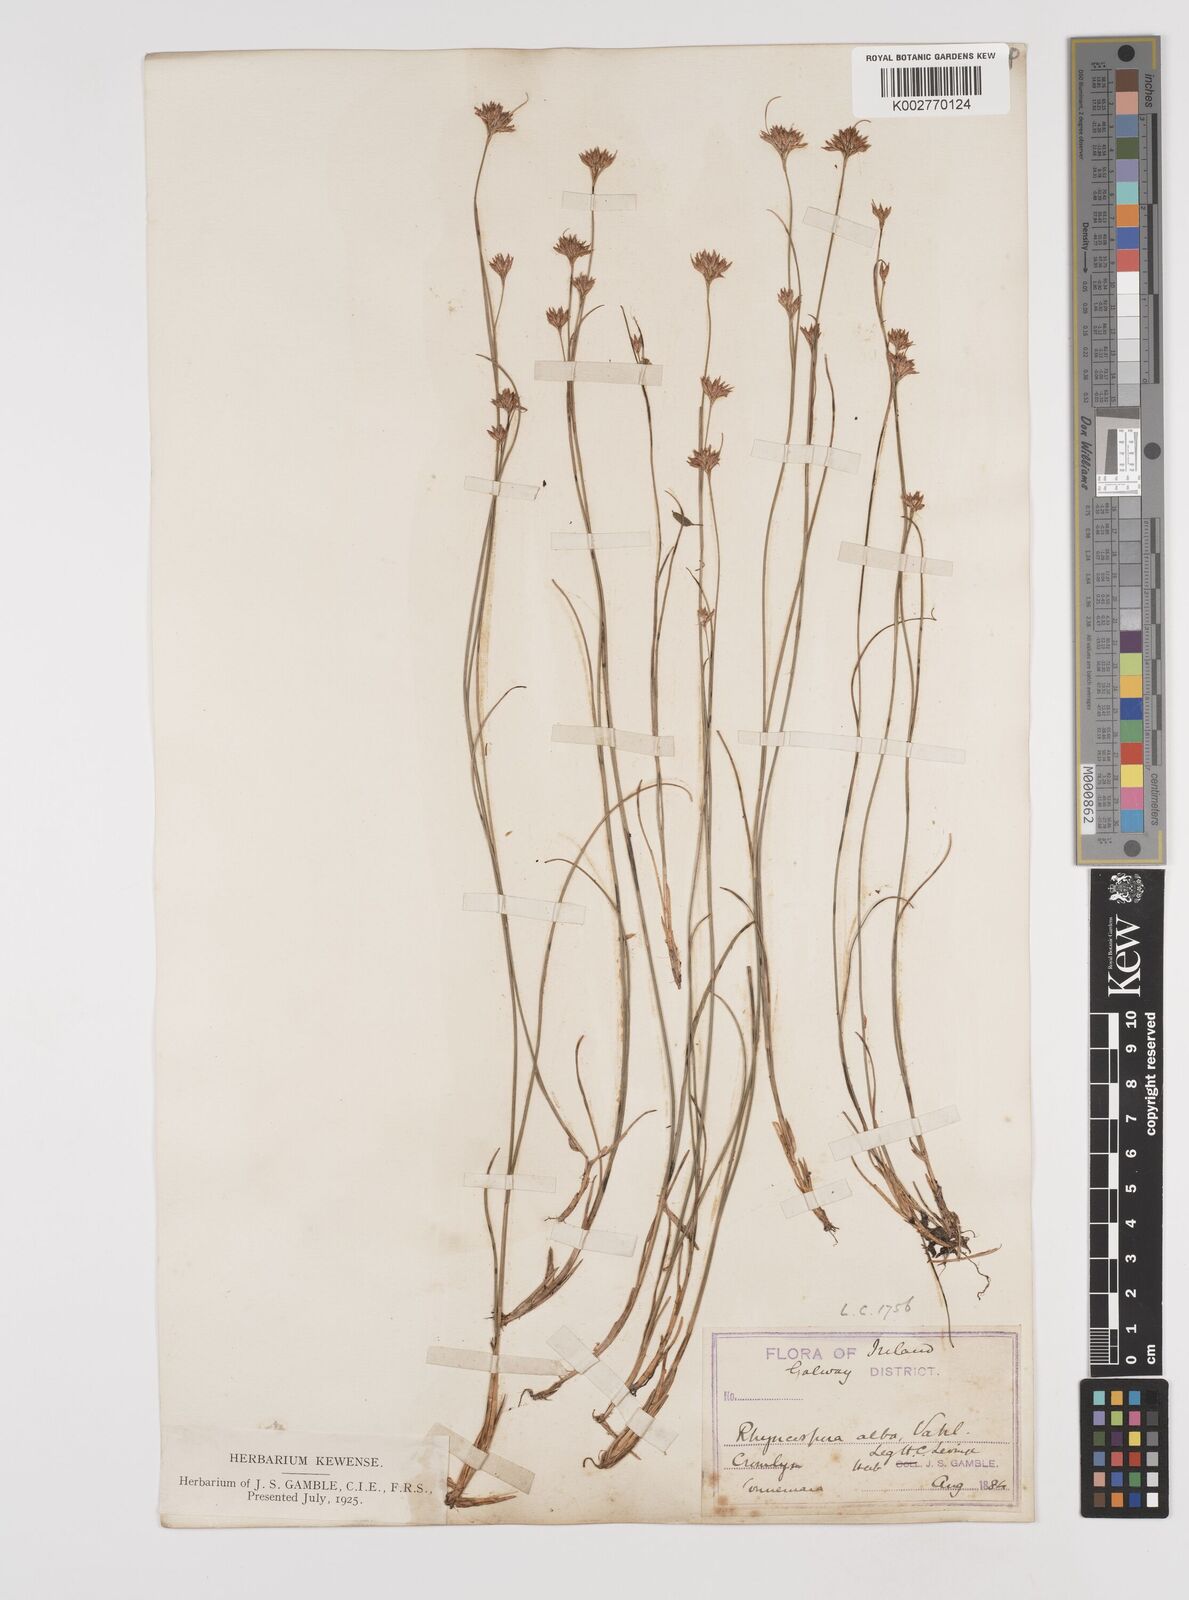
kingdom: Plantae
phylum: Tracheophyta
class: Liliopsida
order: Poales
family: Cyperaceae
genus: Rhynchospora
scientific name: Rhynchospora alba
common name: White beak-sedge
